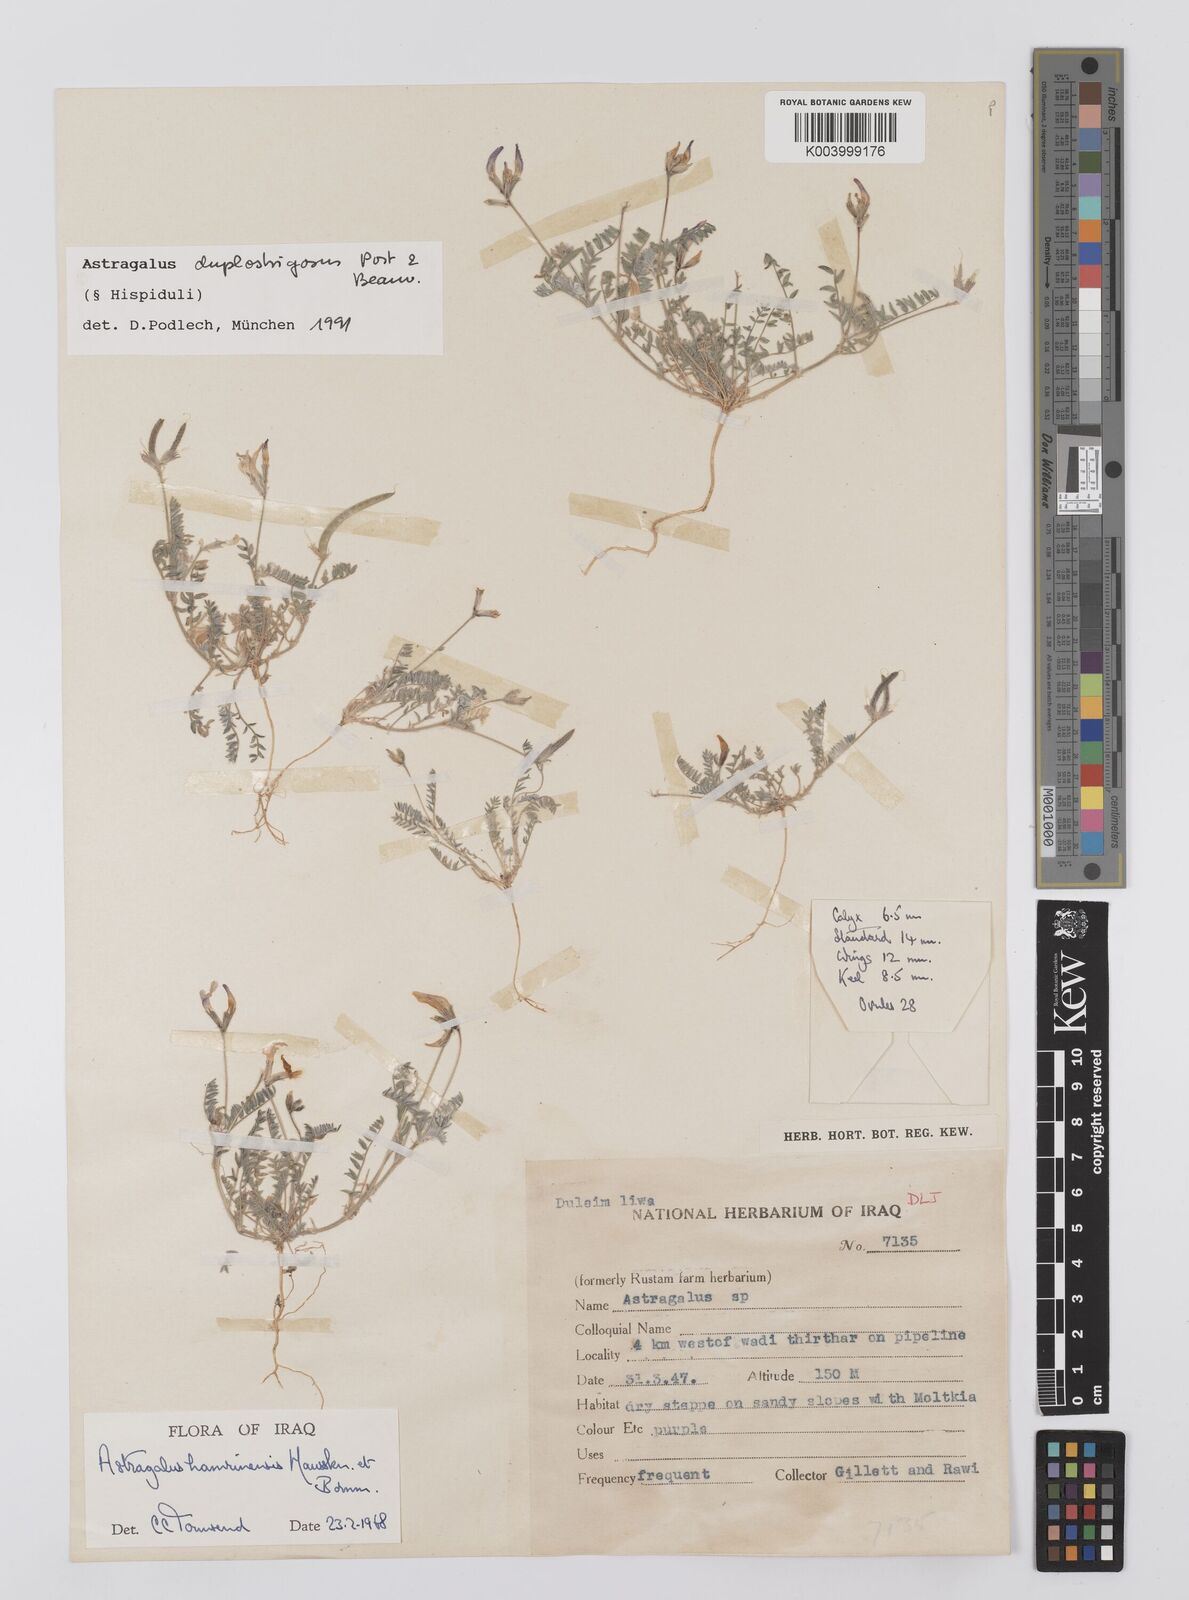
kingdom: Plantae
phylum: Tracheophyta
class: Magnoliopsida
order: Fabales
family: Fabaceae
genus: Astragalus
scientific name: Astragalus duplostrigosus
